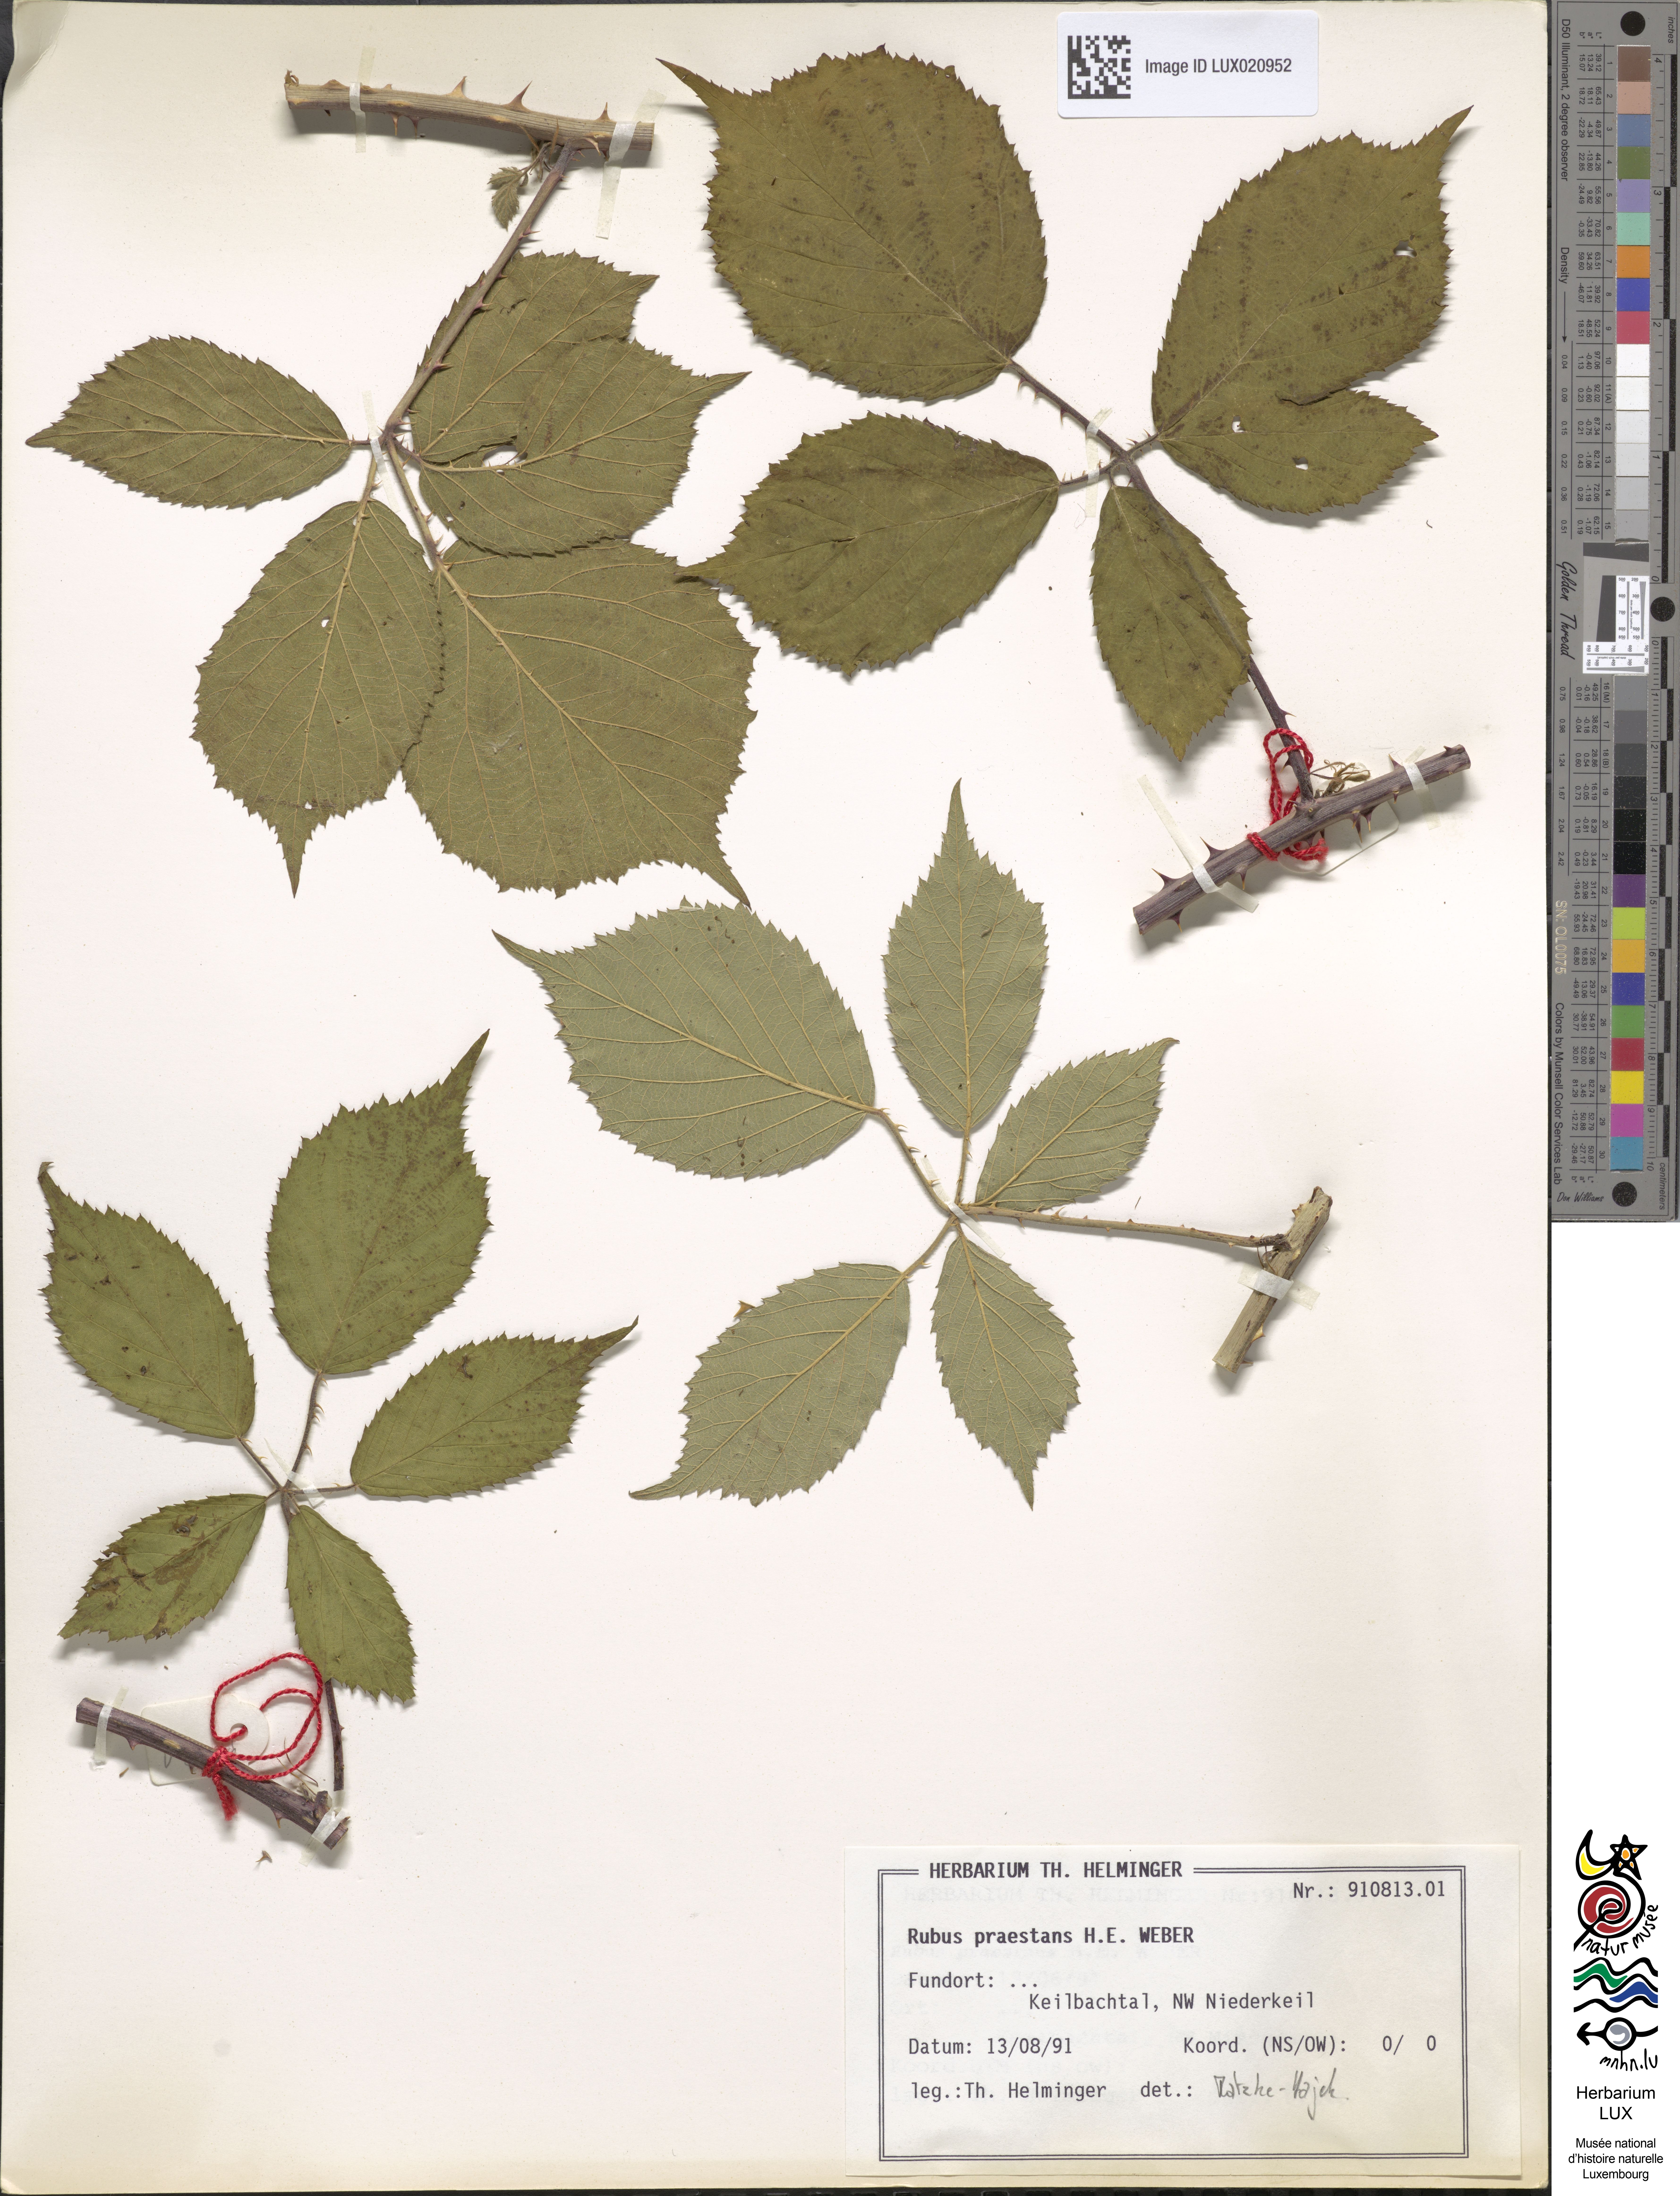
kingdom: Plantae
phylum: Tracheophyta
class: Magnoliopsida
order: Rosales
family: Rosaceae
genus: Rubus
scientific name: Rubus praestans
